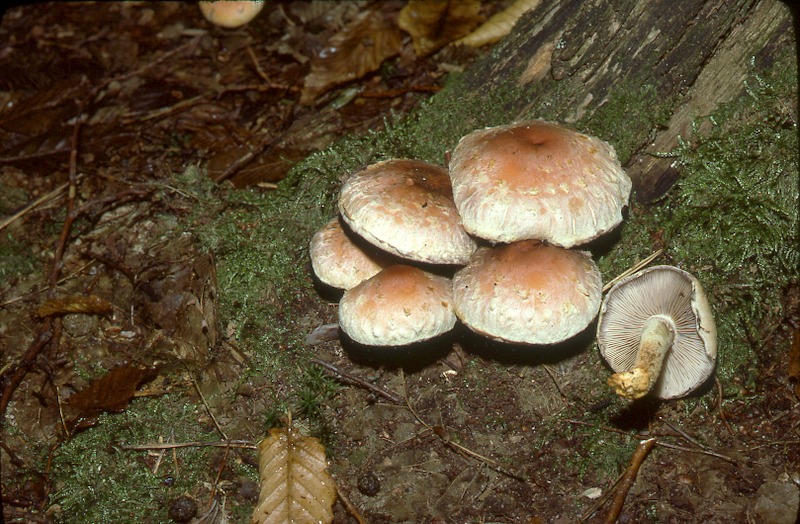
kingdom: Fungi
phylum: Basidiomycota
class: Agaricomycetes
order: Agaricales
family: Strophariaceae
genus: Hypholoma
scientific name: Hypholoma lateritium
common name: Brick caps
